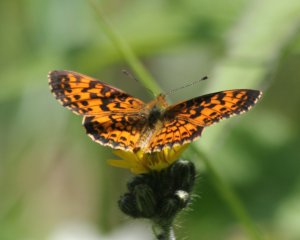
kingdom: Animalia
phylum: Arthropoda
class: Insecta
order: Lepidoptera
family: Nymphalidae
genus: Boloria
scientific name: Boloria selene
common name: Silver-bordered Fritillary
